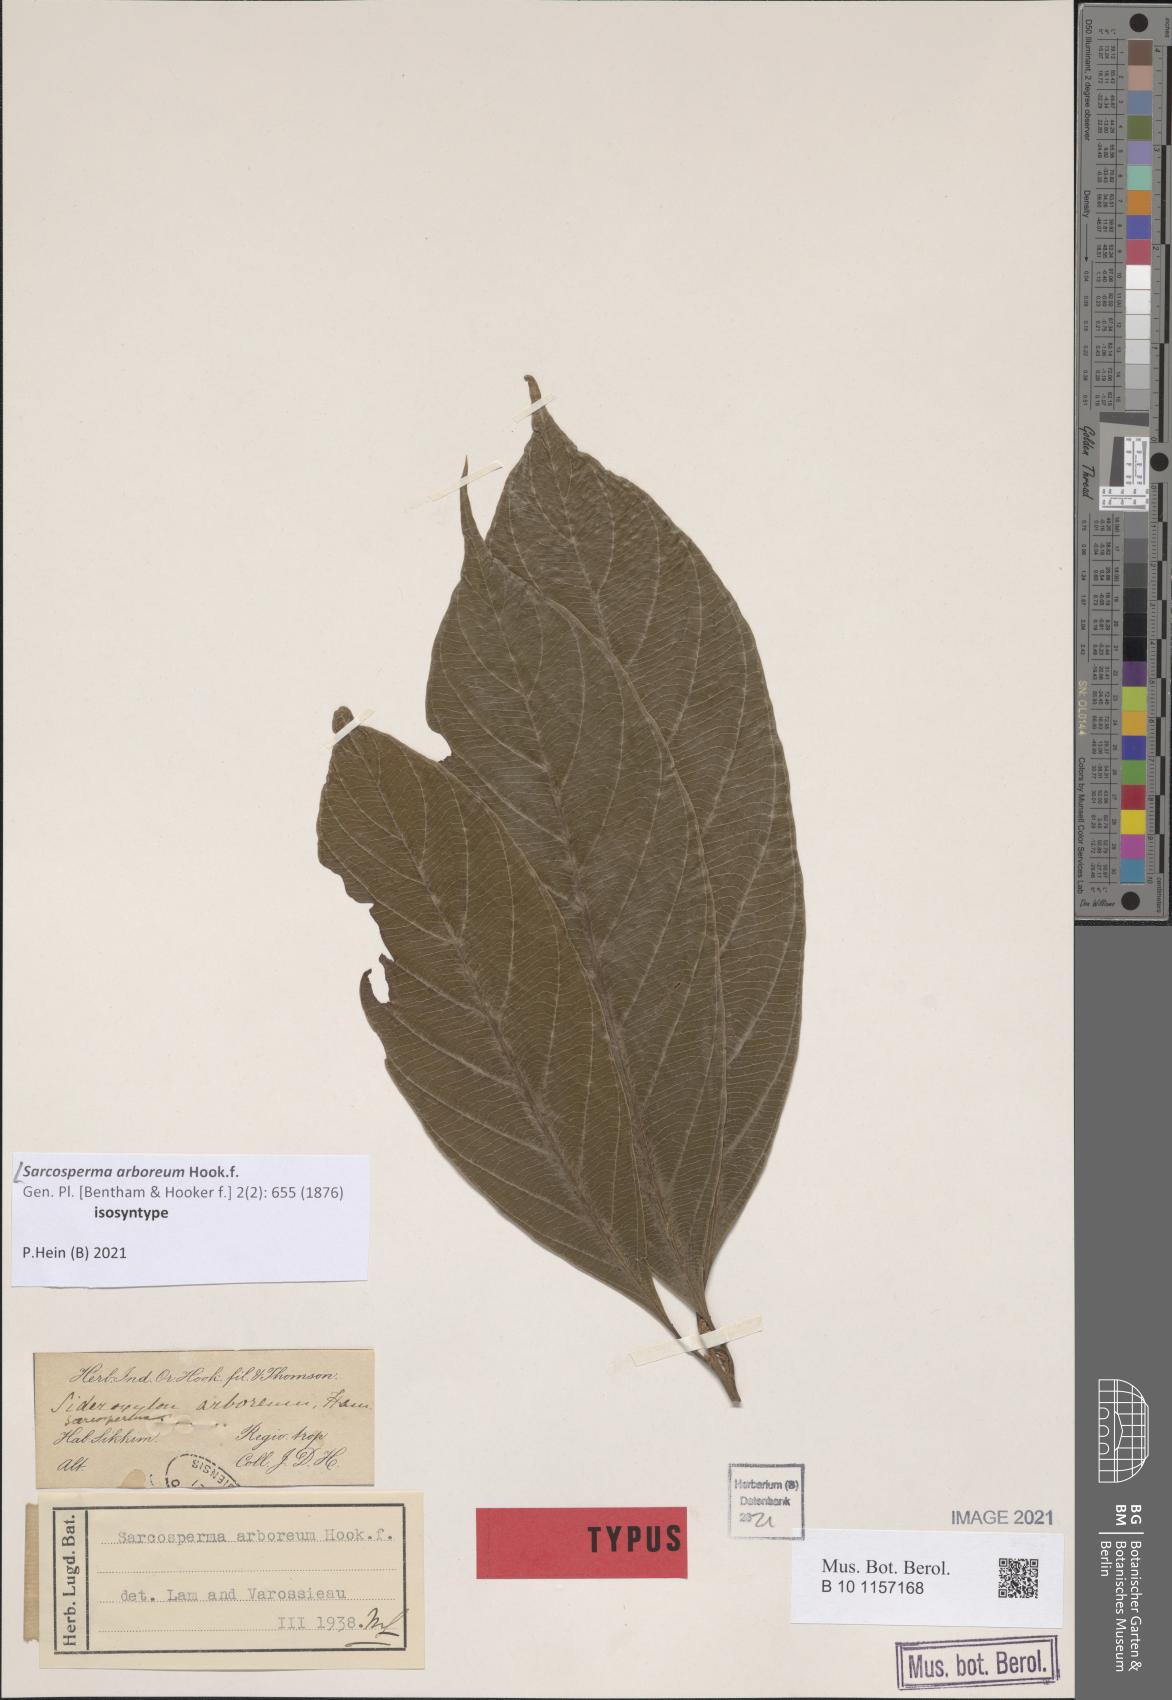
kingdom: Plantae
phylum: Tracheophyta
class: Magnoliopsida
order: Ericales
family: Sapotaceae
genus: Sarcosperma
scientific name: Sarcosperma arboreum
